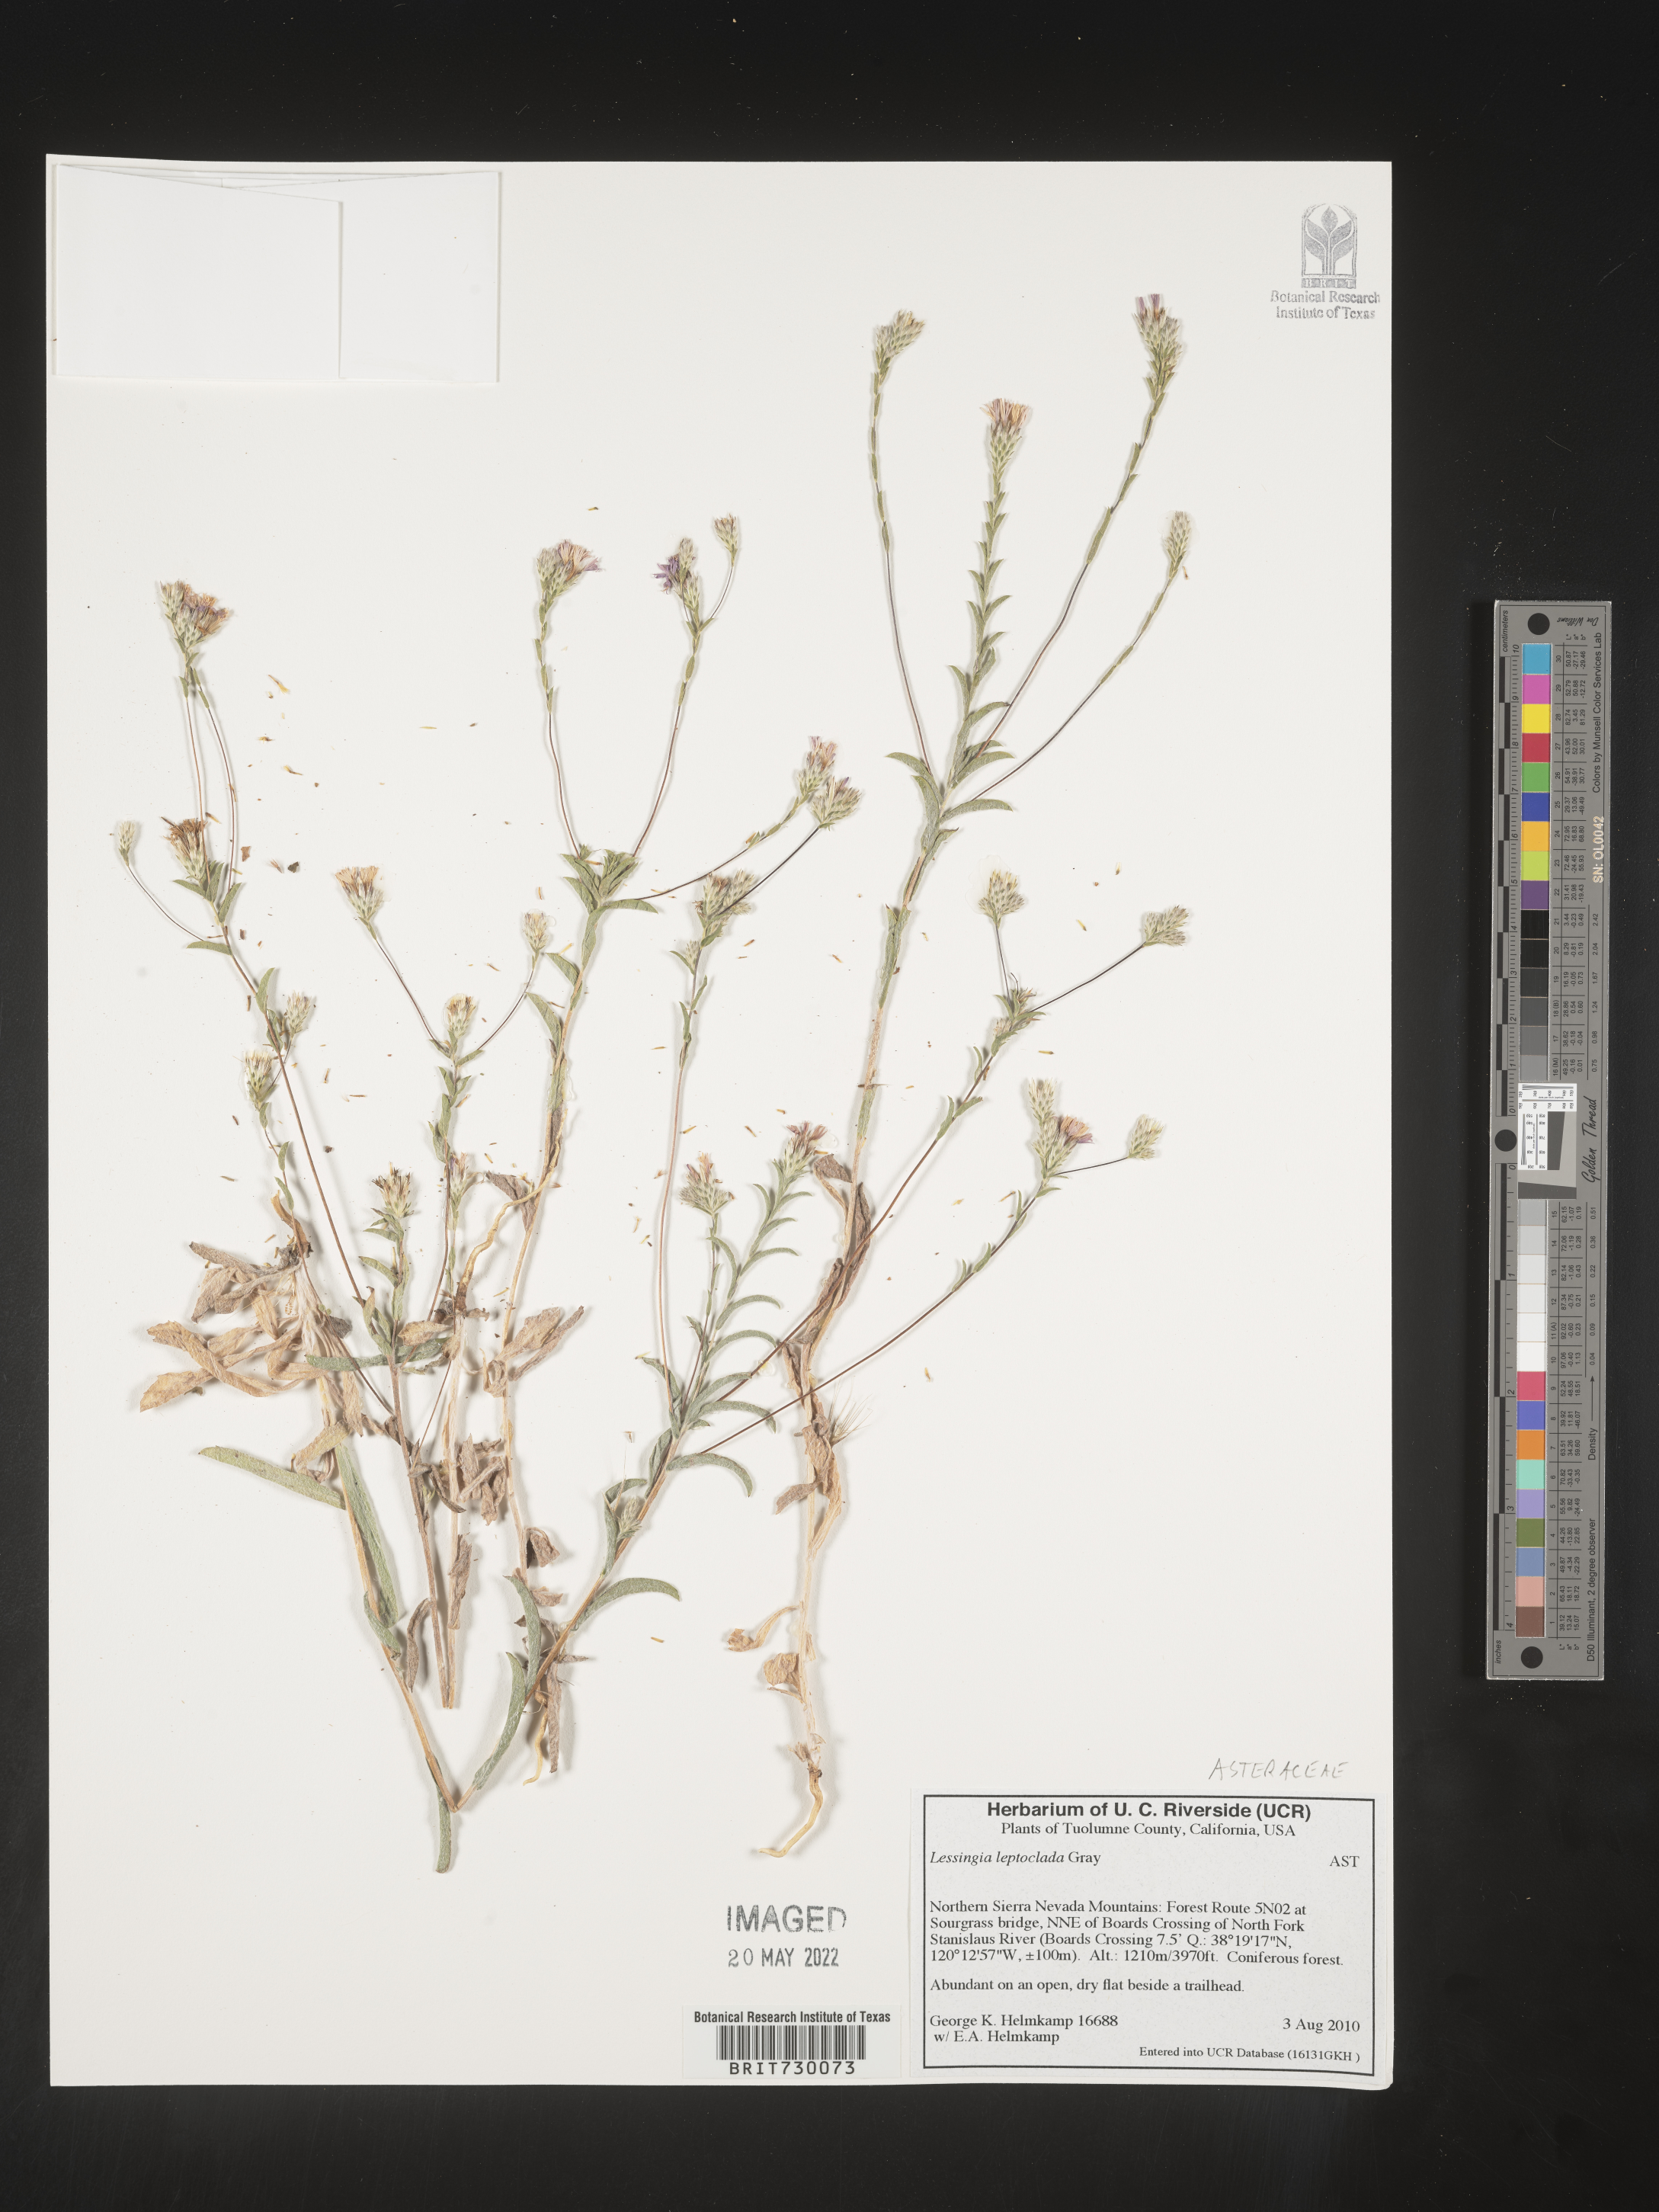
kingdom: Plantae
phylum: Tracheophyta
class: Magnoliopsida
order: Asterales
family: Asteraceae
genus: Lessingia
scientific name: Lessingia
